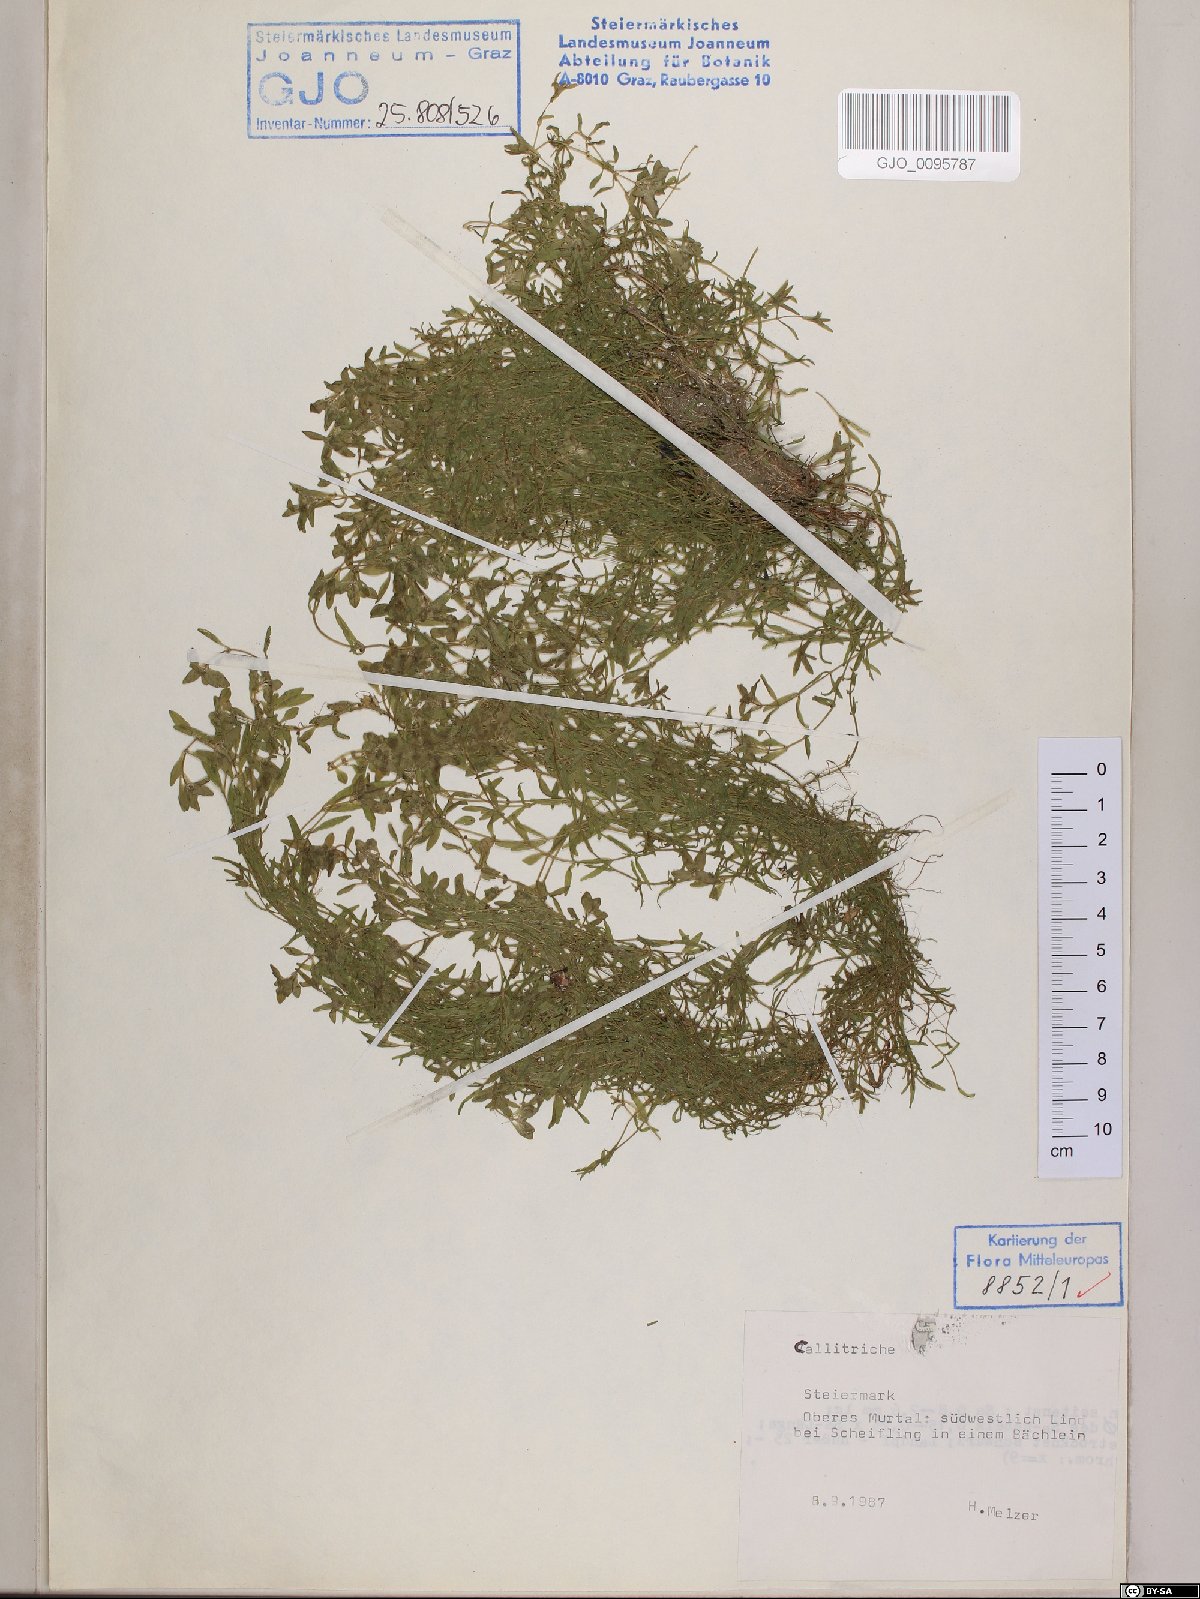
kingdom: Plantae
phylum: Tracheophyta
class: Magnoliopsida
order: Lamiales
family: Plantaginaceae
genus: Callitriche
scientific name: Callitriche
